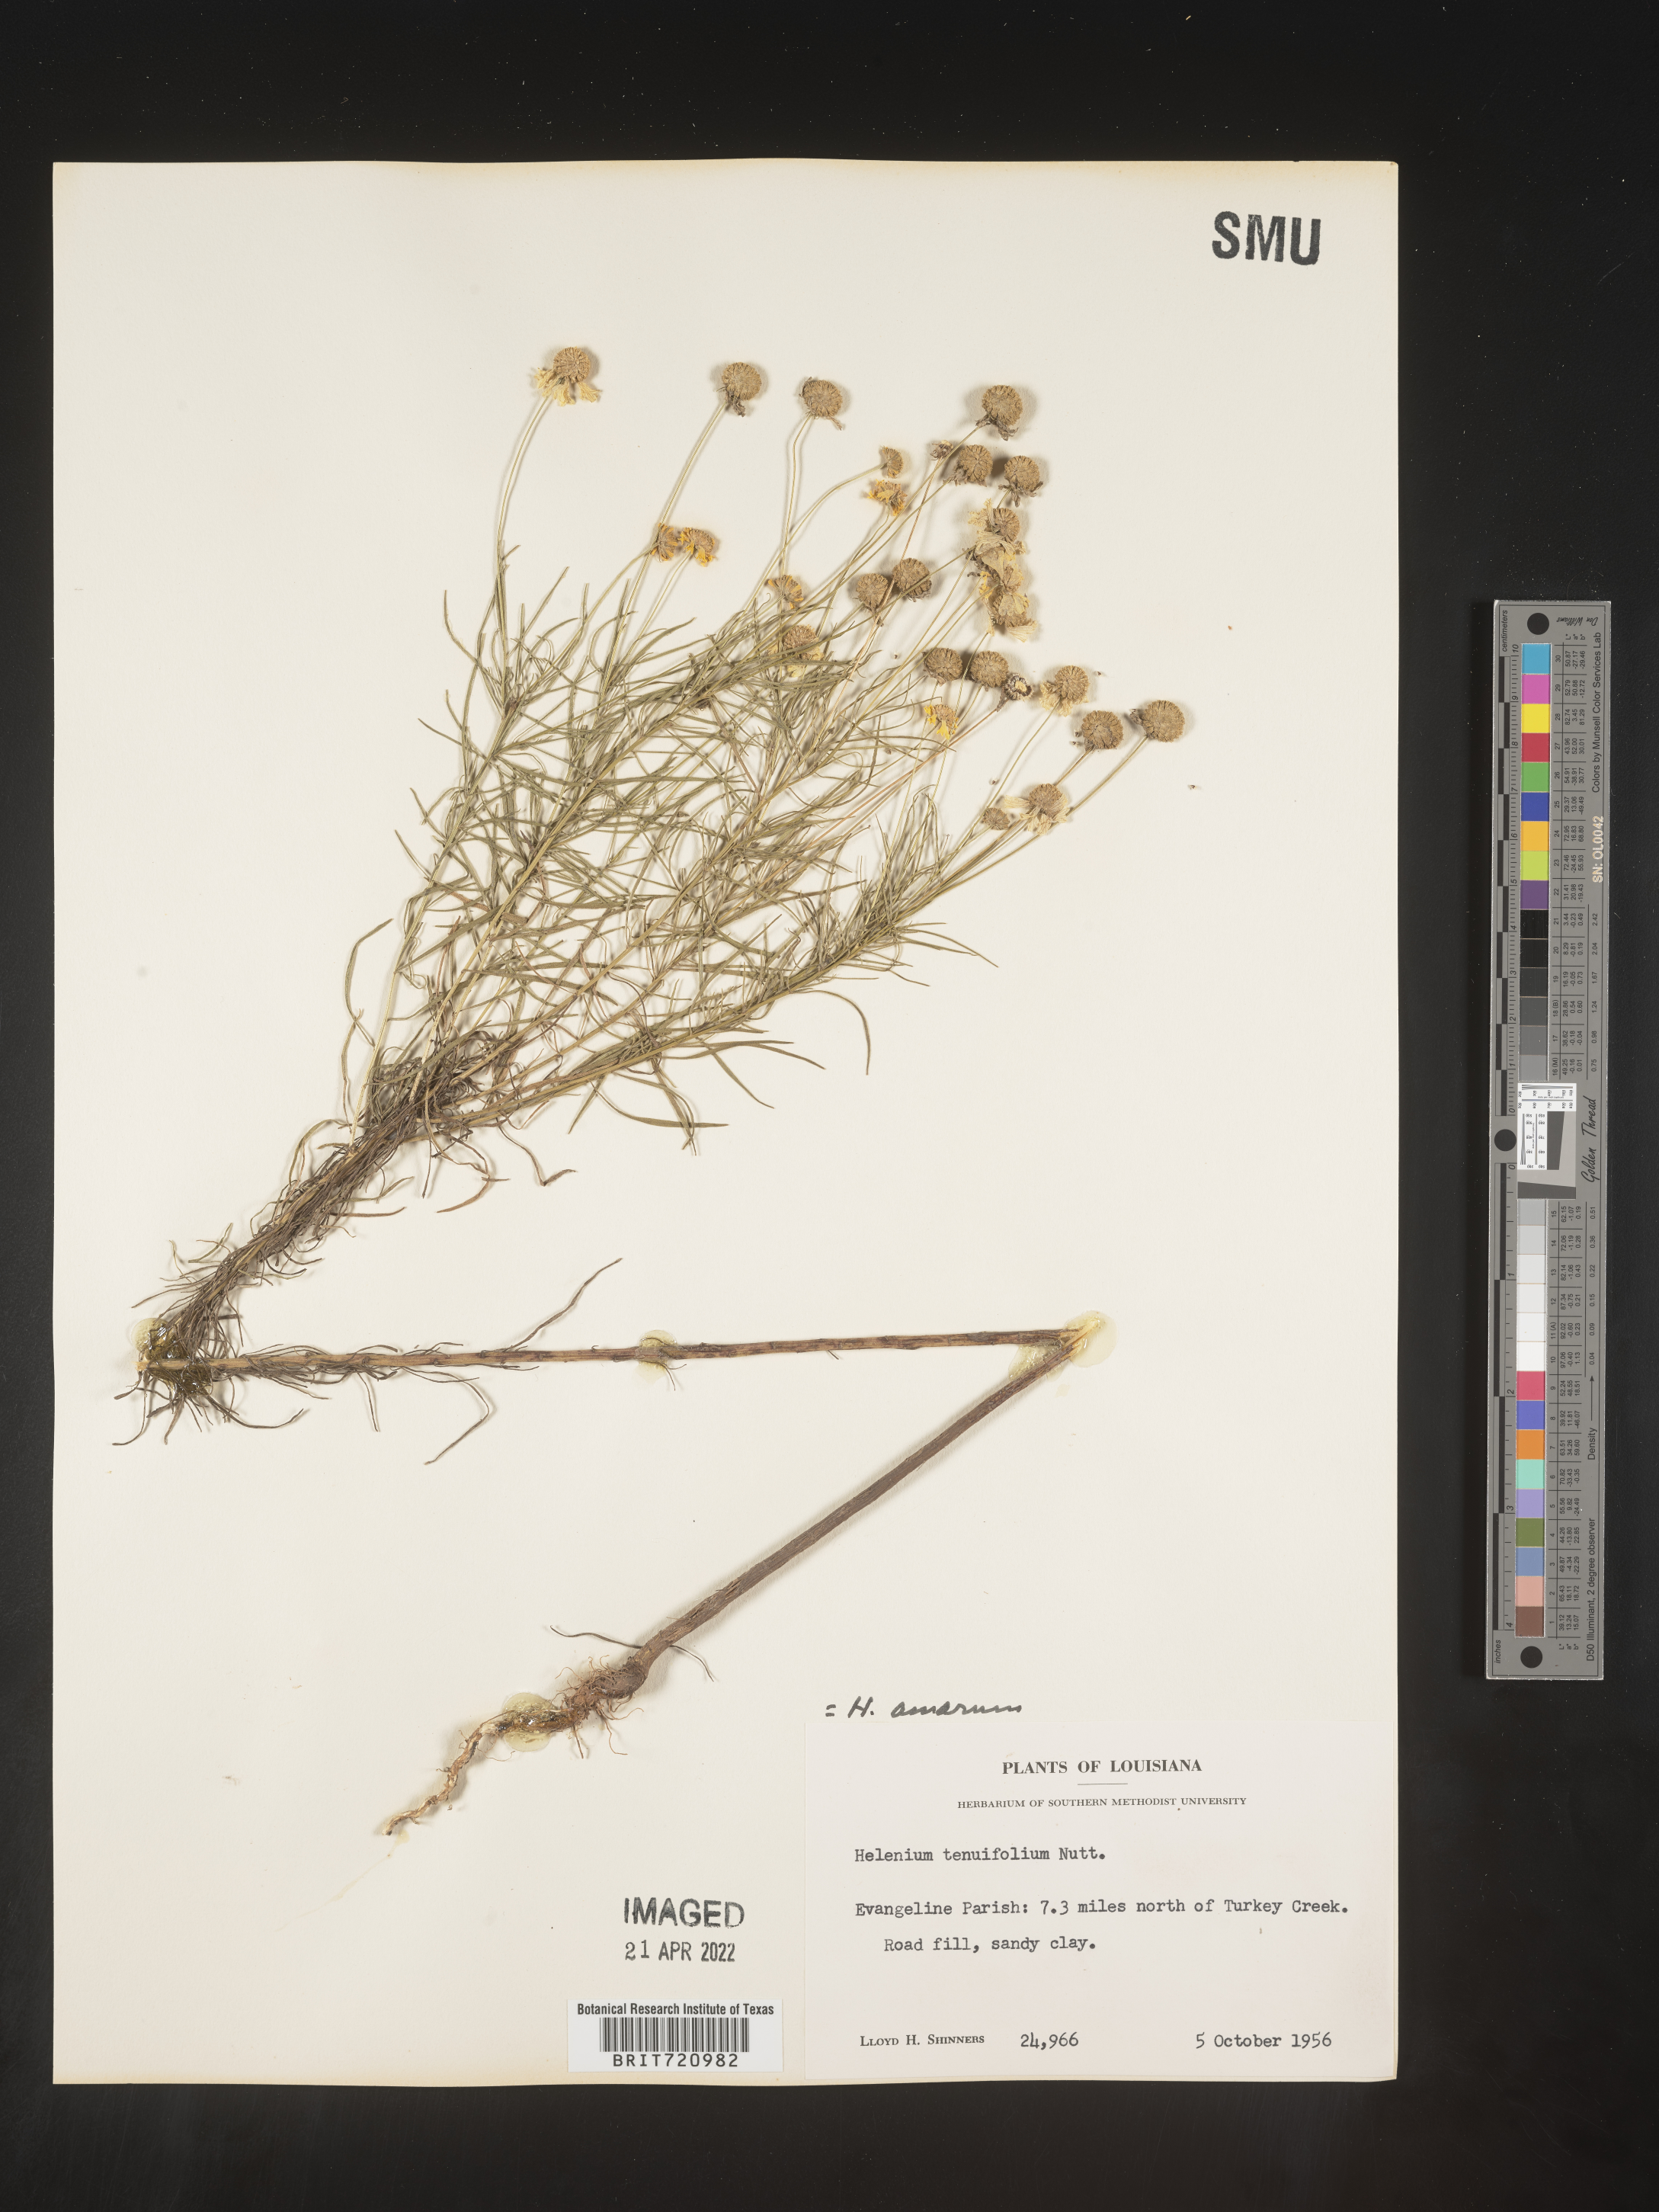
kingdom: Plantae
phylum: Tracheophyta
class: Magnoliopsida
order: Asterales
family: Asteraceae
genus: Helenium
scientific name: Helenium amarum
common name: Bitter sneezeweed
